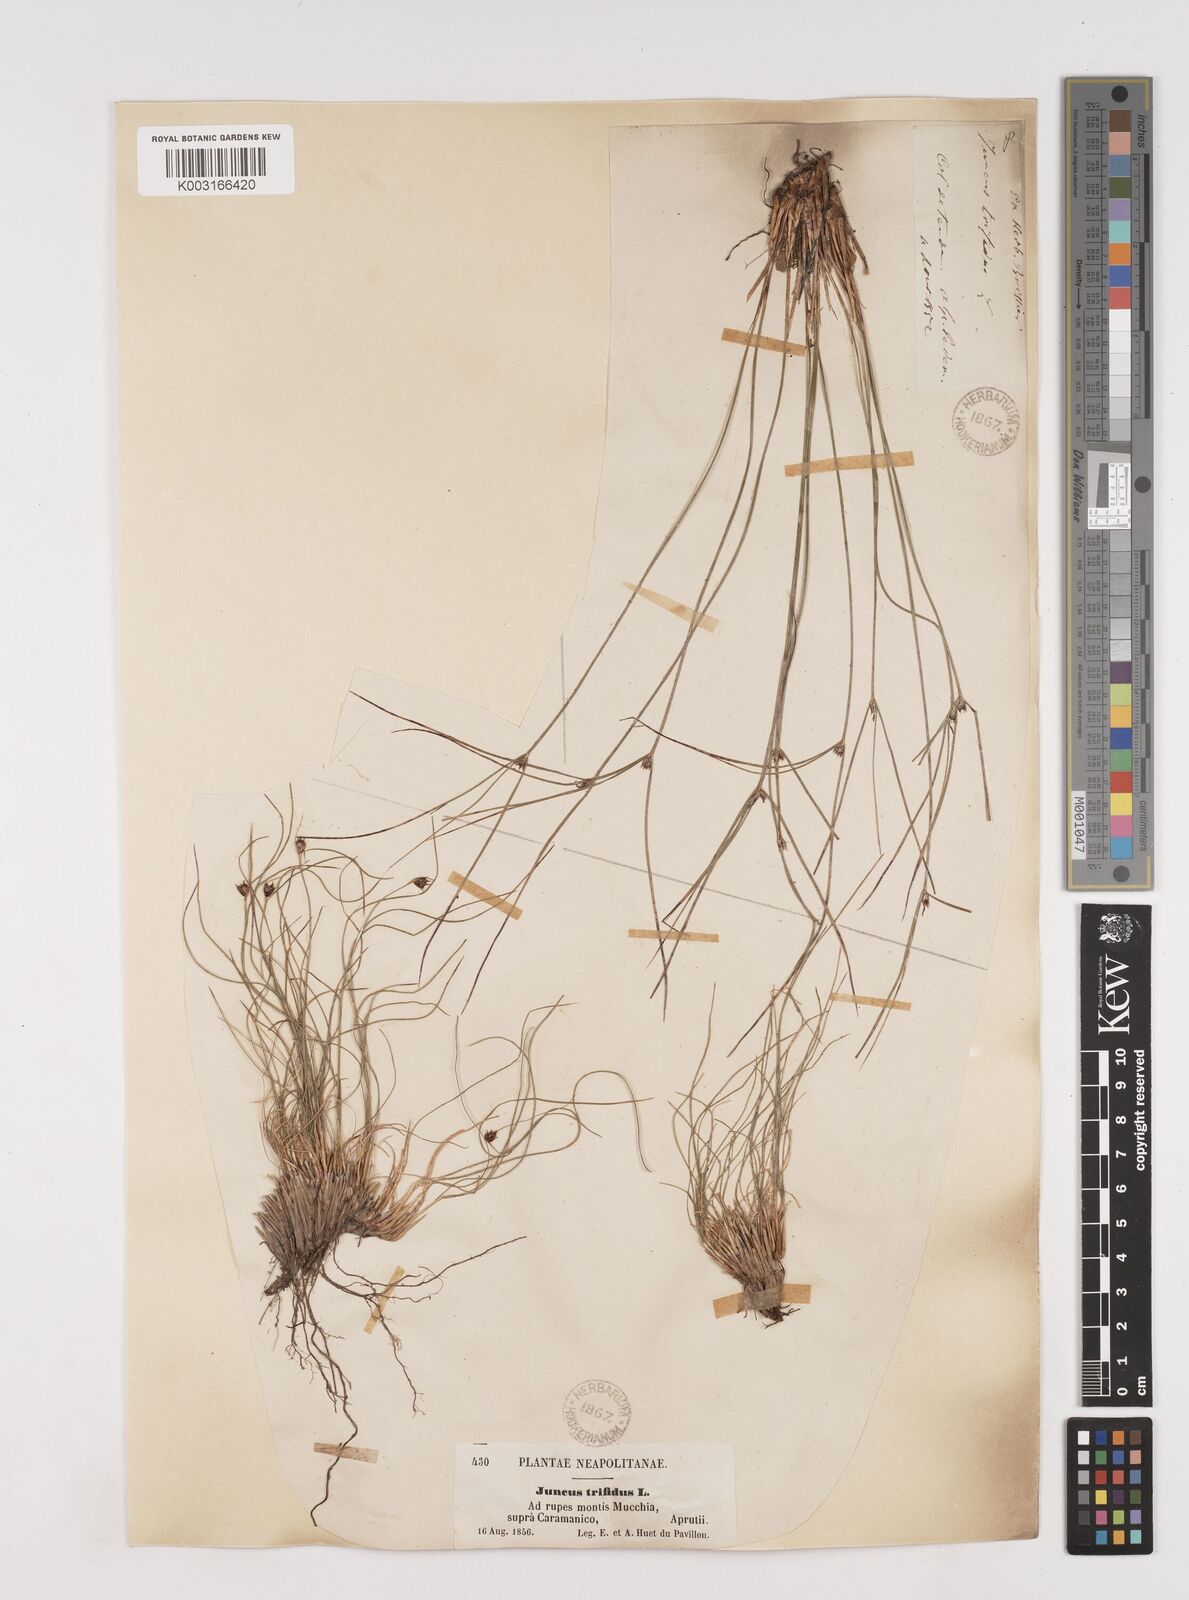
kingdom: Plantae
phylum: Tracheophyta
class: Liliopsida
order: Poales
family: Juncaceae
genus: Oreojuncus
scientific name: Oreojuncus trifidus
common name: Highland rush
